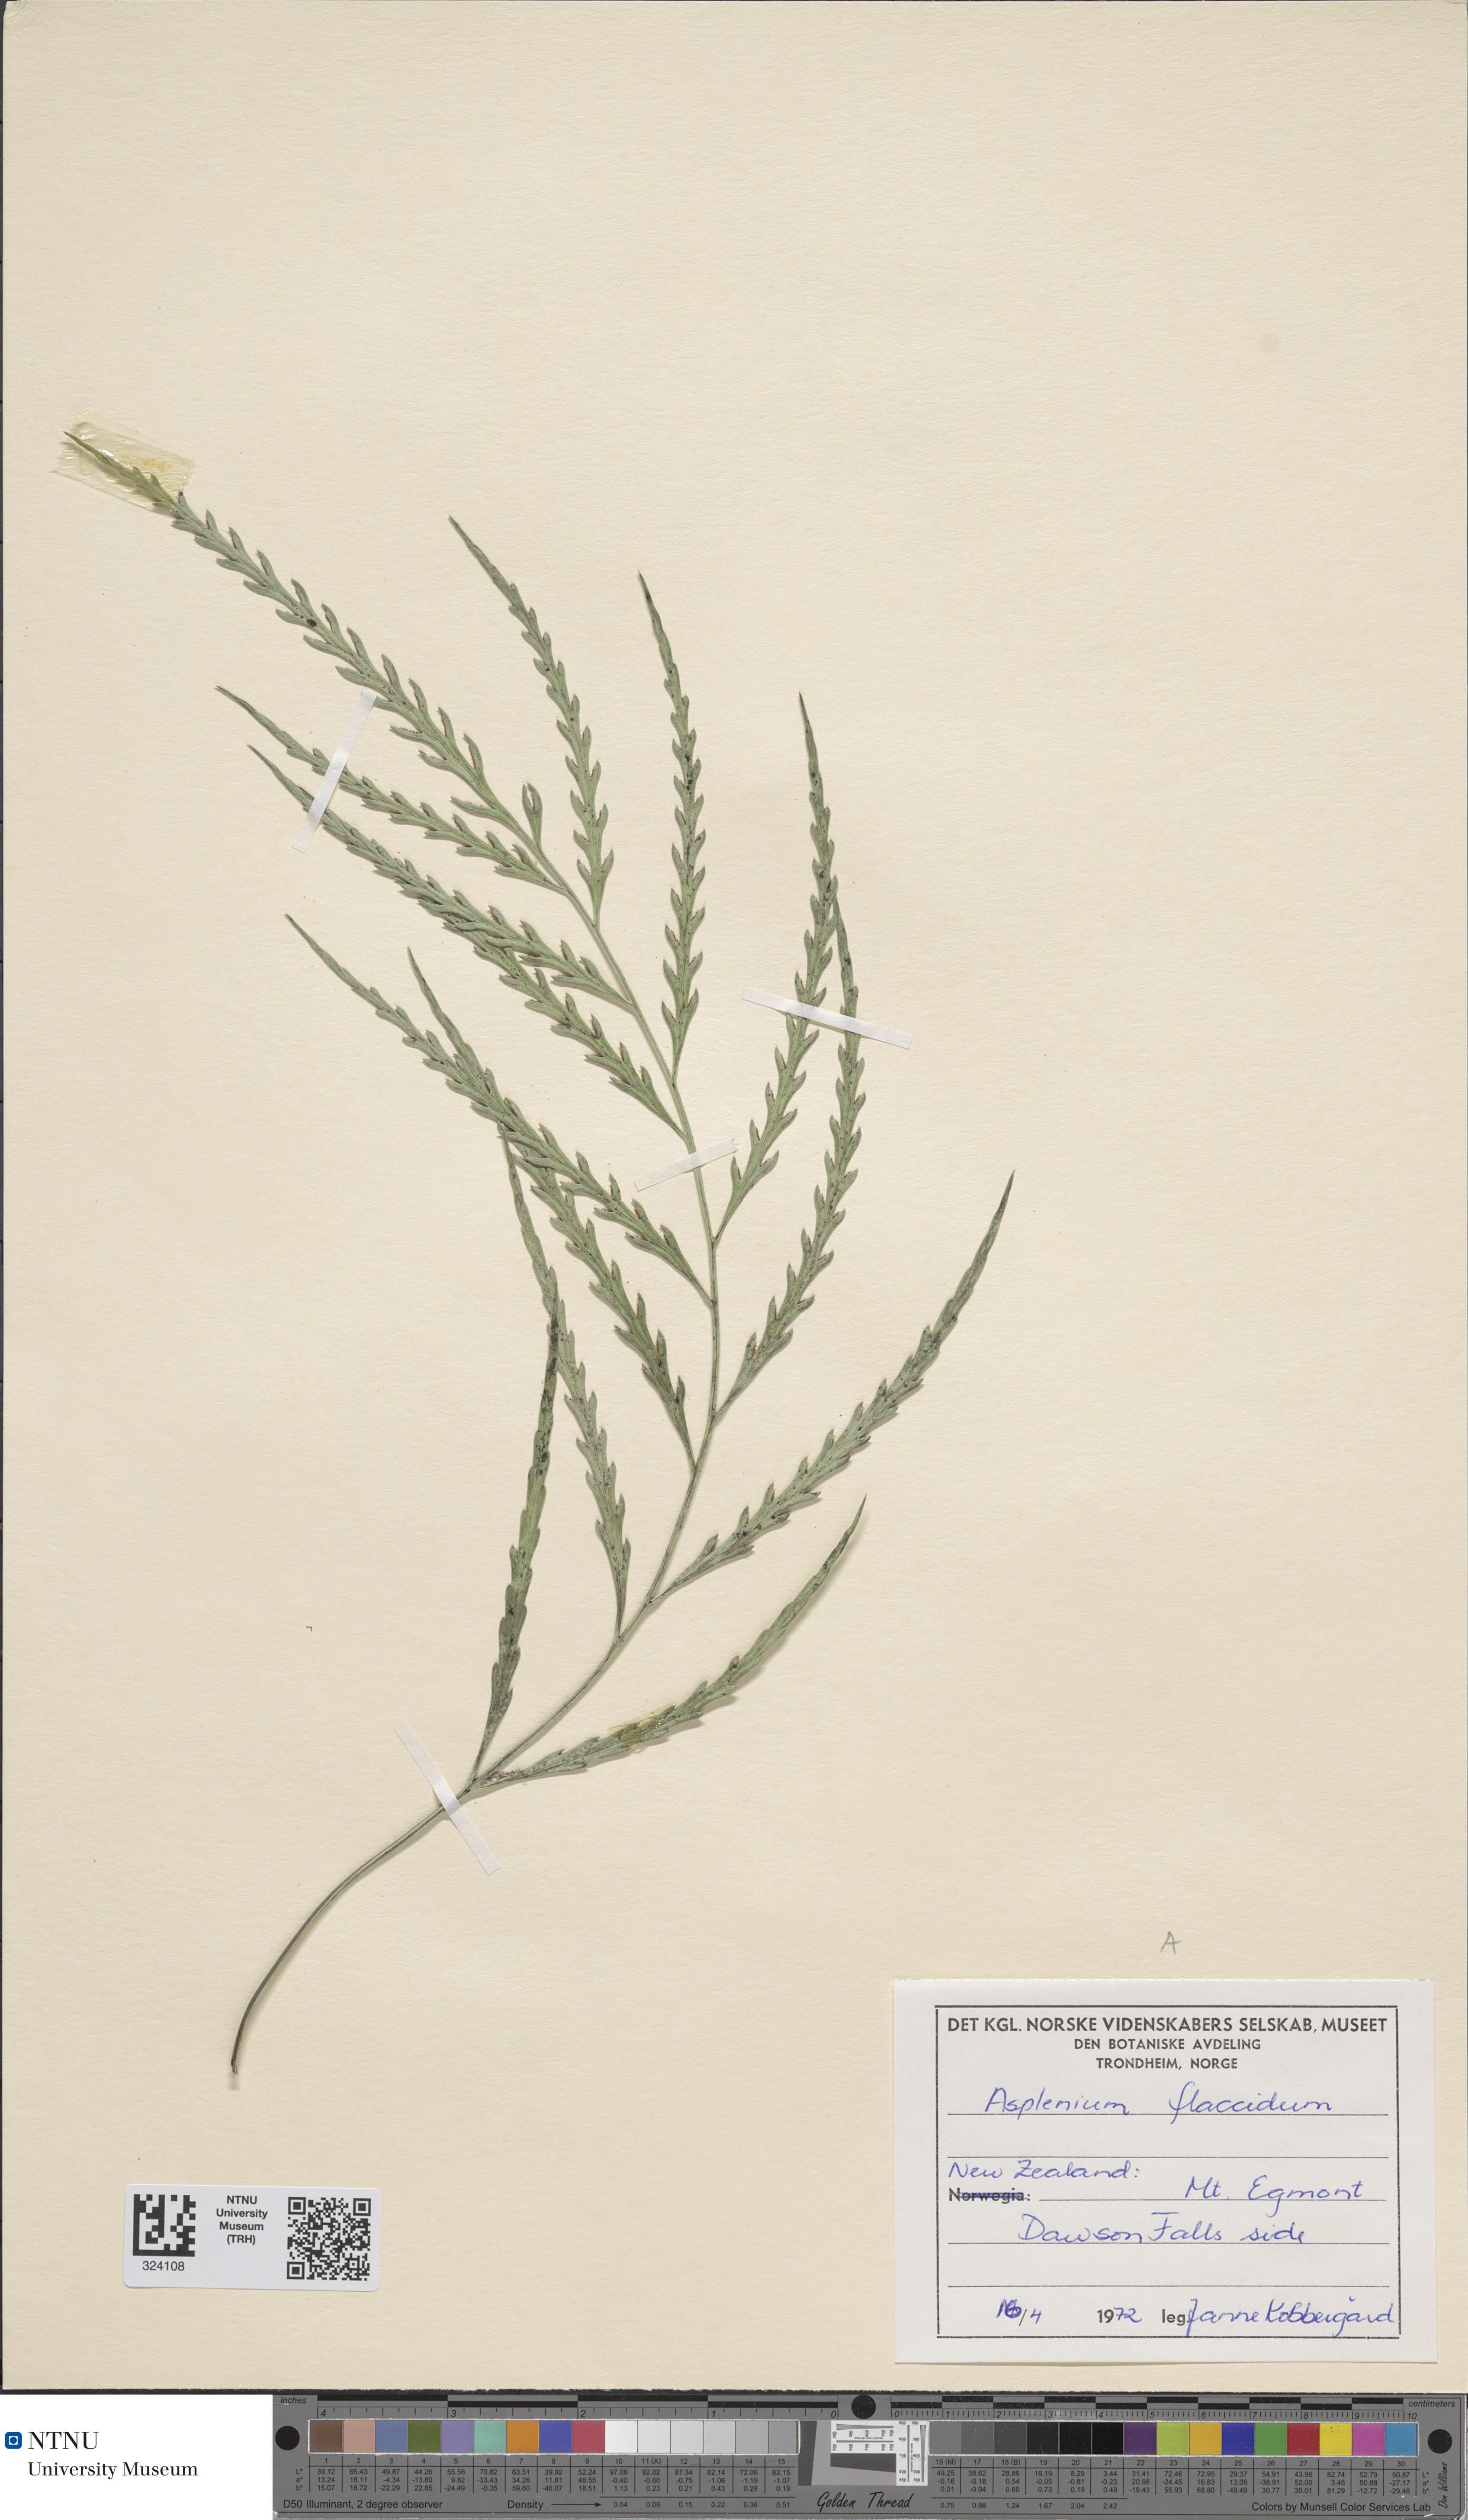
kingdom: Plantae
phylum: Tracheophyta
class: Polypodiopsida
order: Polypodiales
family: Aspleniaceae
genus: Asplenium
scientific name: Asplenium flaccidum
